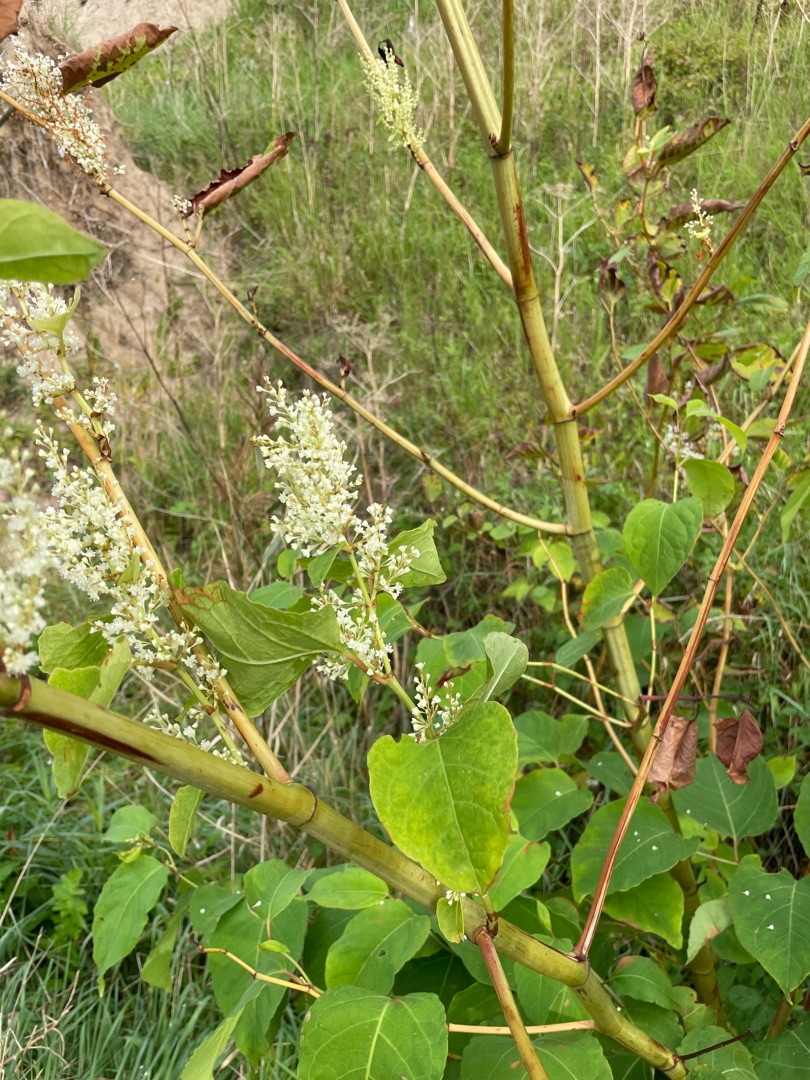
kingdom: Plantae
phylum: Tracheophyta
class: Magnoliopsida
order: Caryophyllales
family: Polygonaceae
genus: Reynoutria
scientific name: Reynoutria japonica
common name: Japan-pileurt
